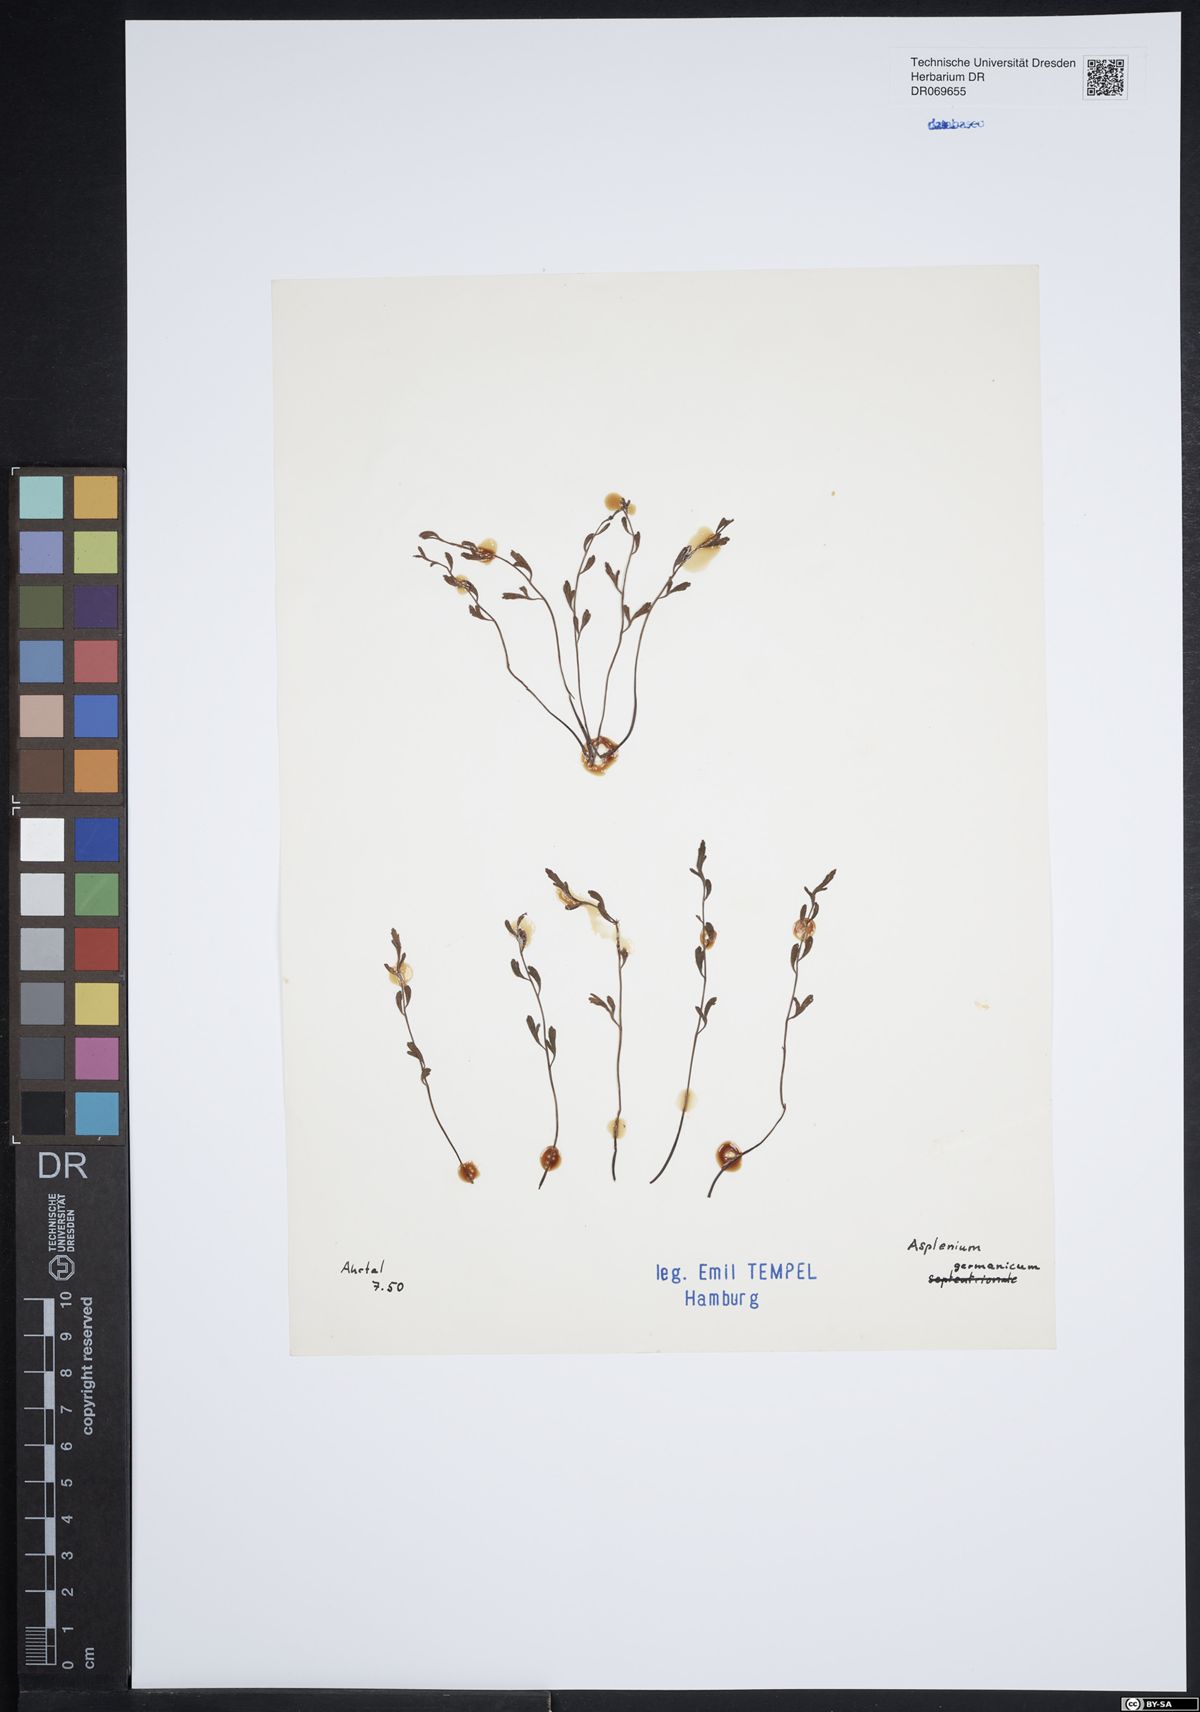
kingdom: Plantae
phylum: Tracheophyta
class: Polypodiopsida
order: Polypodiales
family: Aspleniaceae
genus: Asplenium
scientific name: Asplenium
